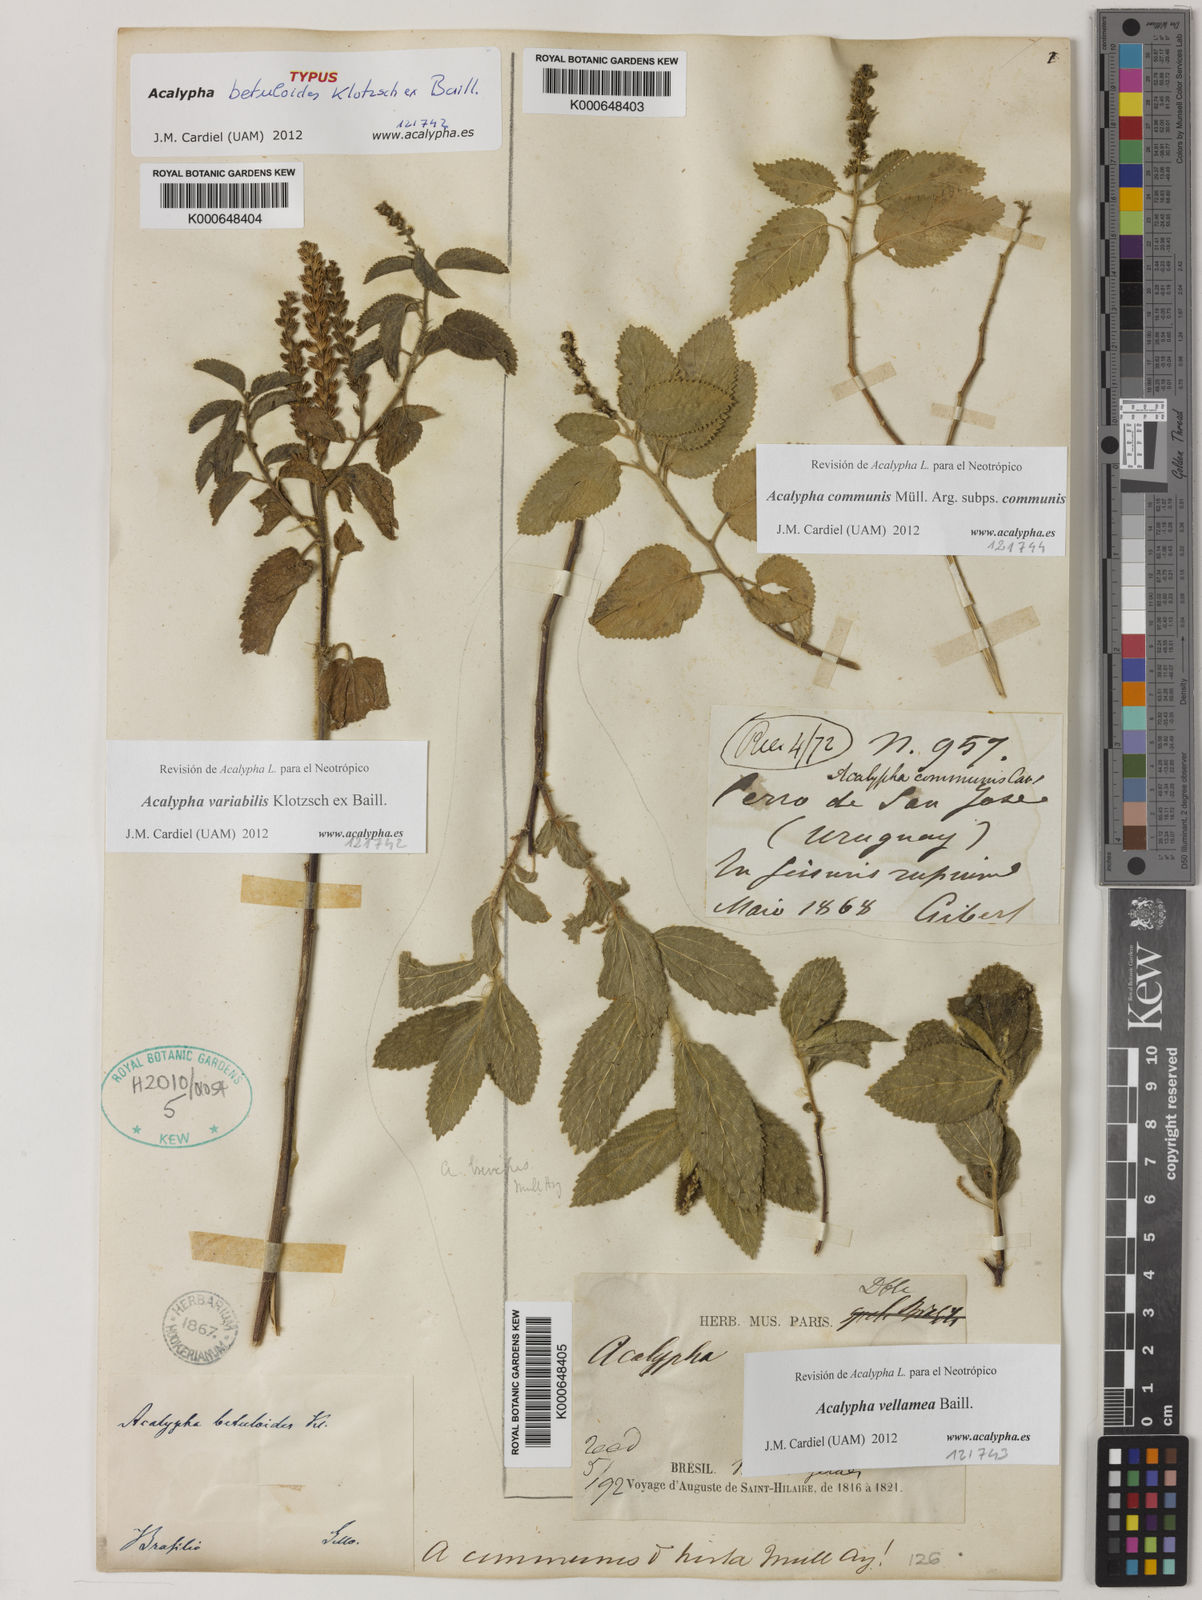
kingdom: Plantae
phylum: Tracheophyta
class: Magnoliopsida
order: Malpighiales
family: Euphorbiaceae
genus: Acalypha
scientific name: Acalypha
